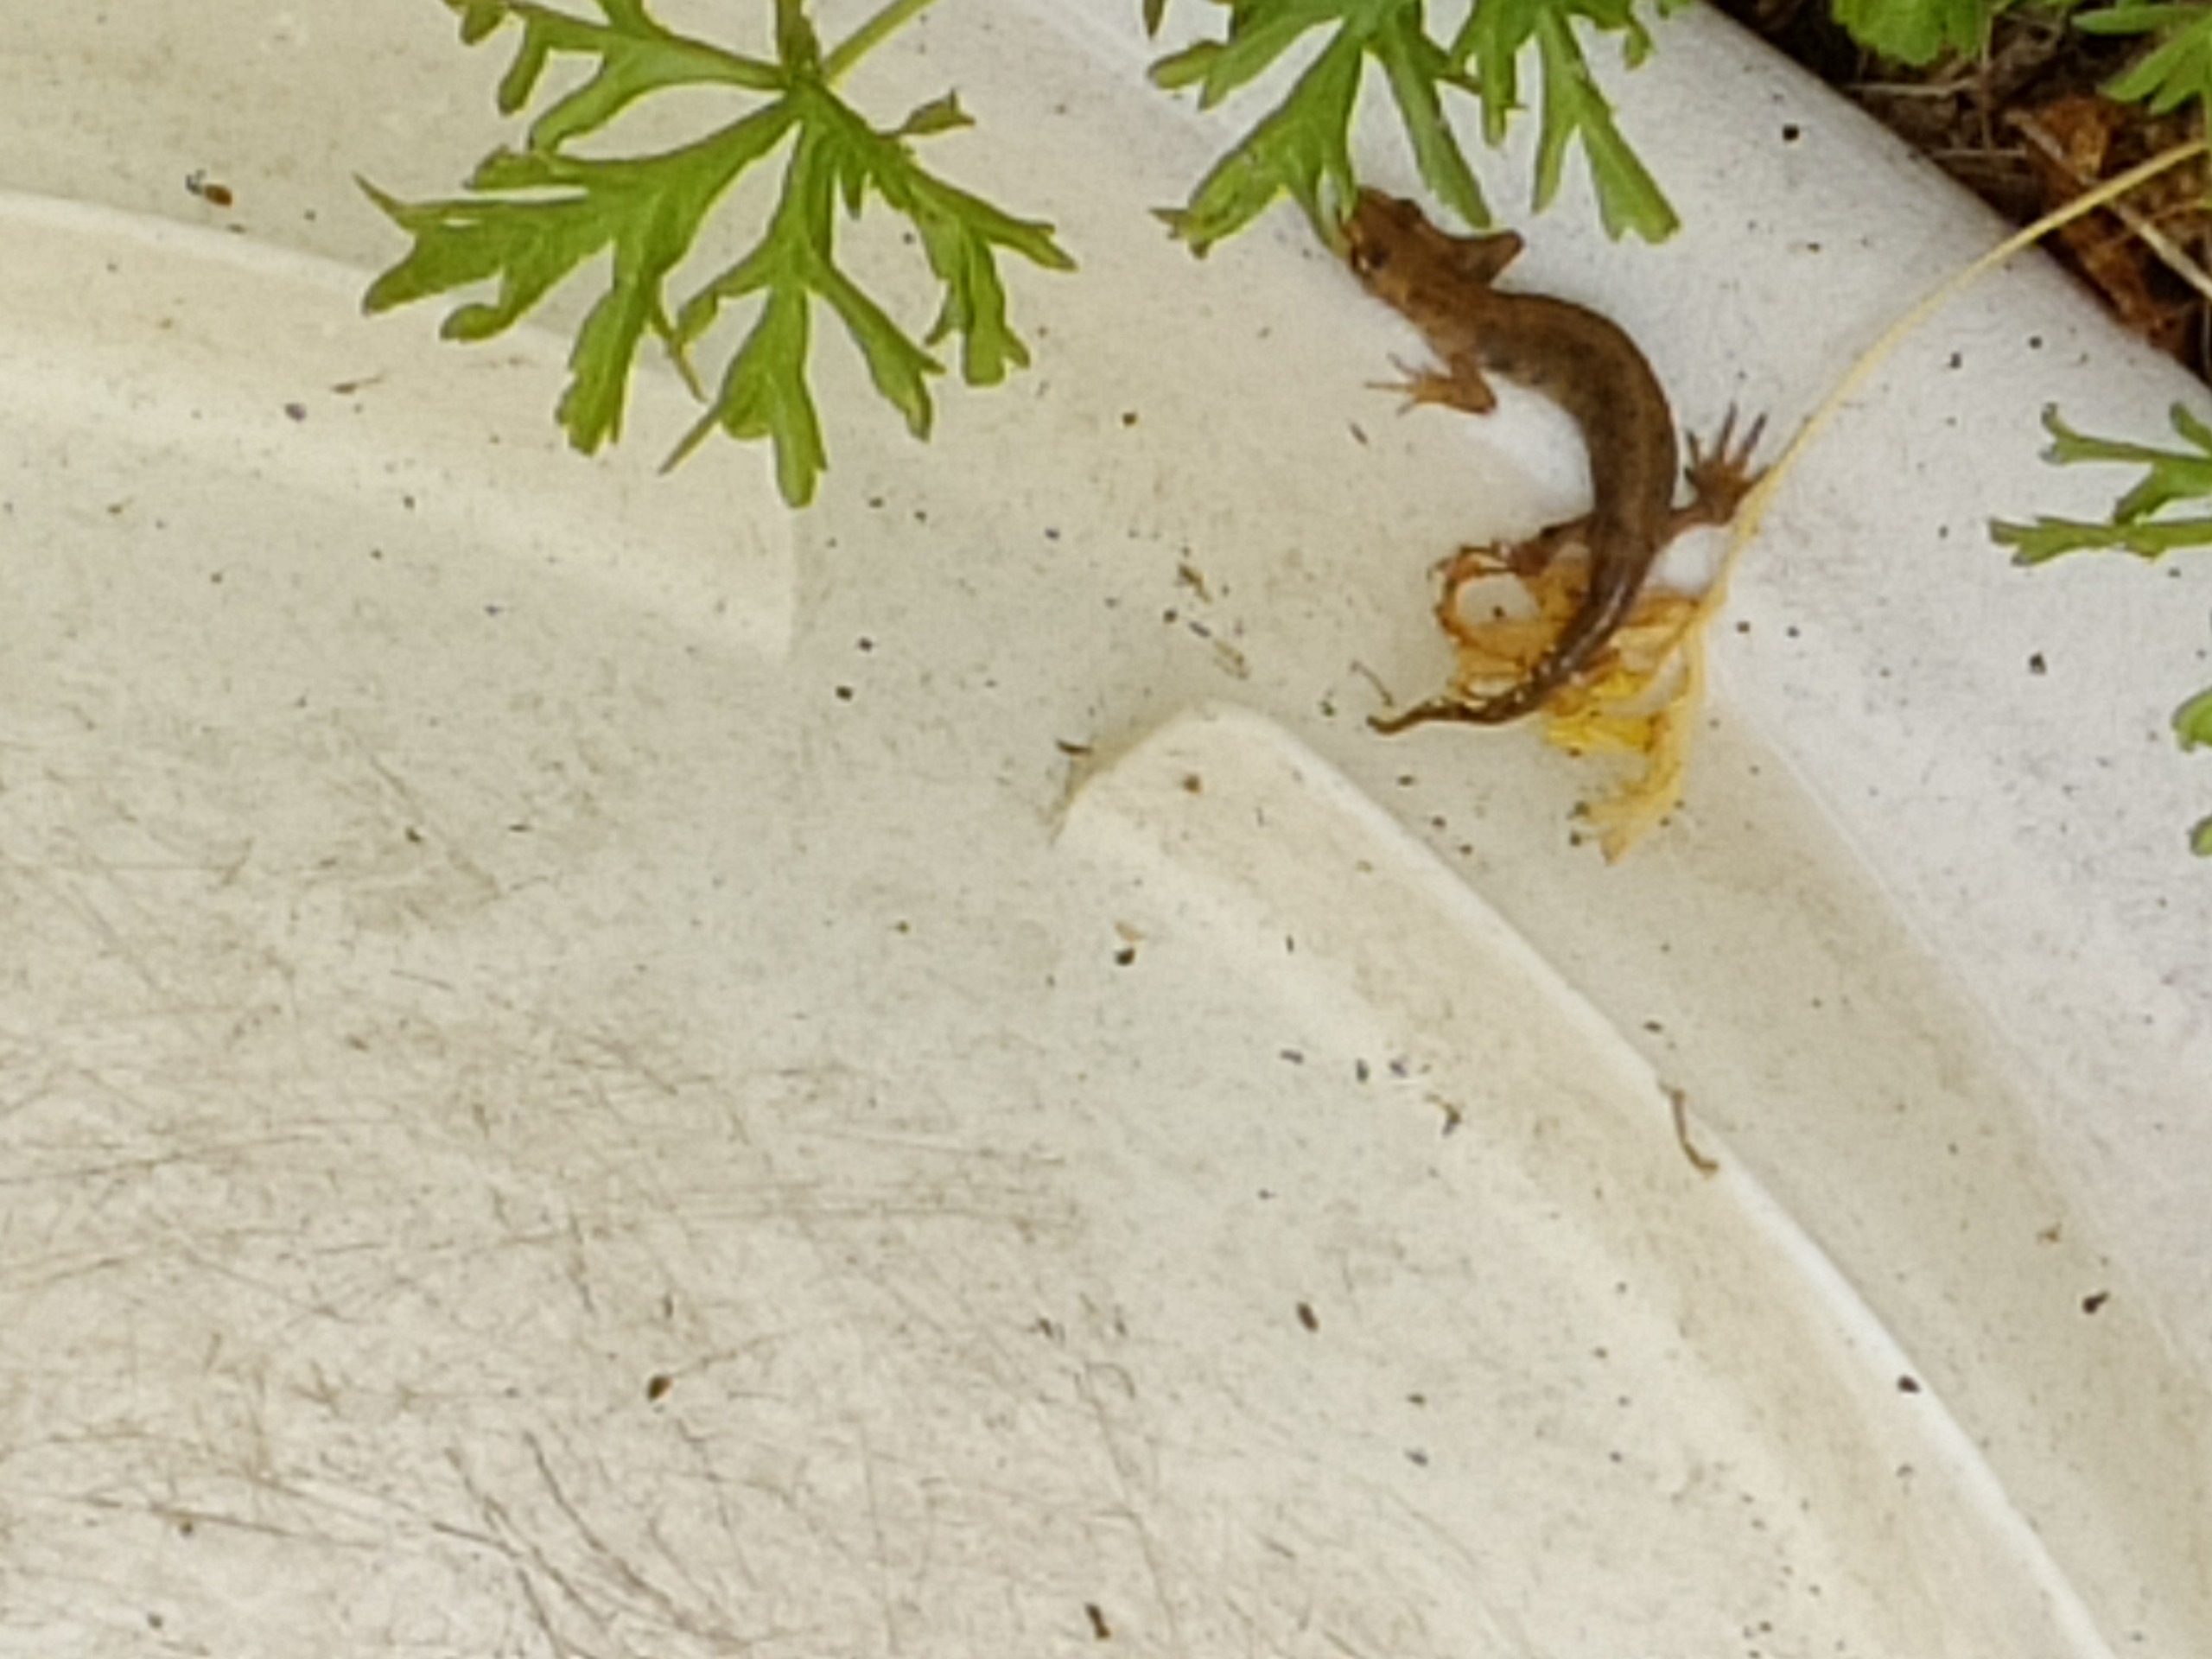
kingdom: Animalia
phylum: Chordata
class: Amphibia
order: Caudata
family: Salamandridae
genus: Lissotriton
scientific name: Lissotriton vulgaris
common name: Lille vandsalamander
